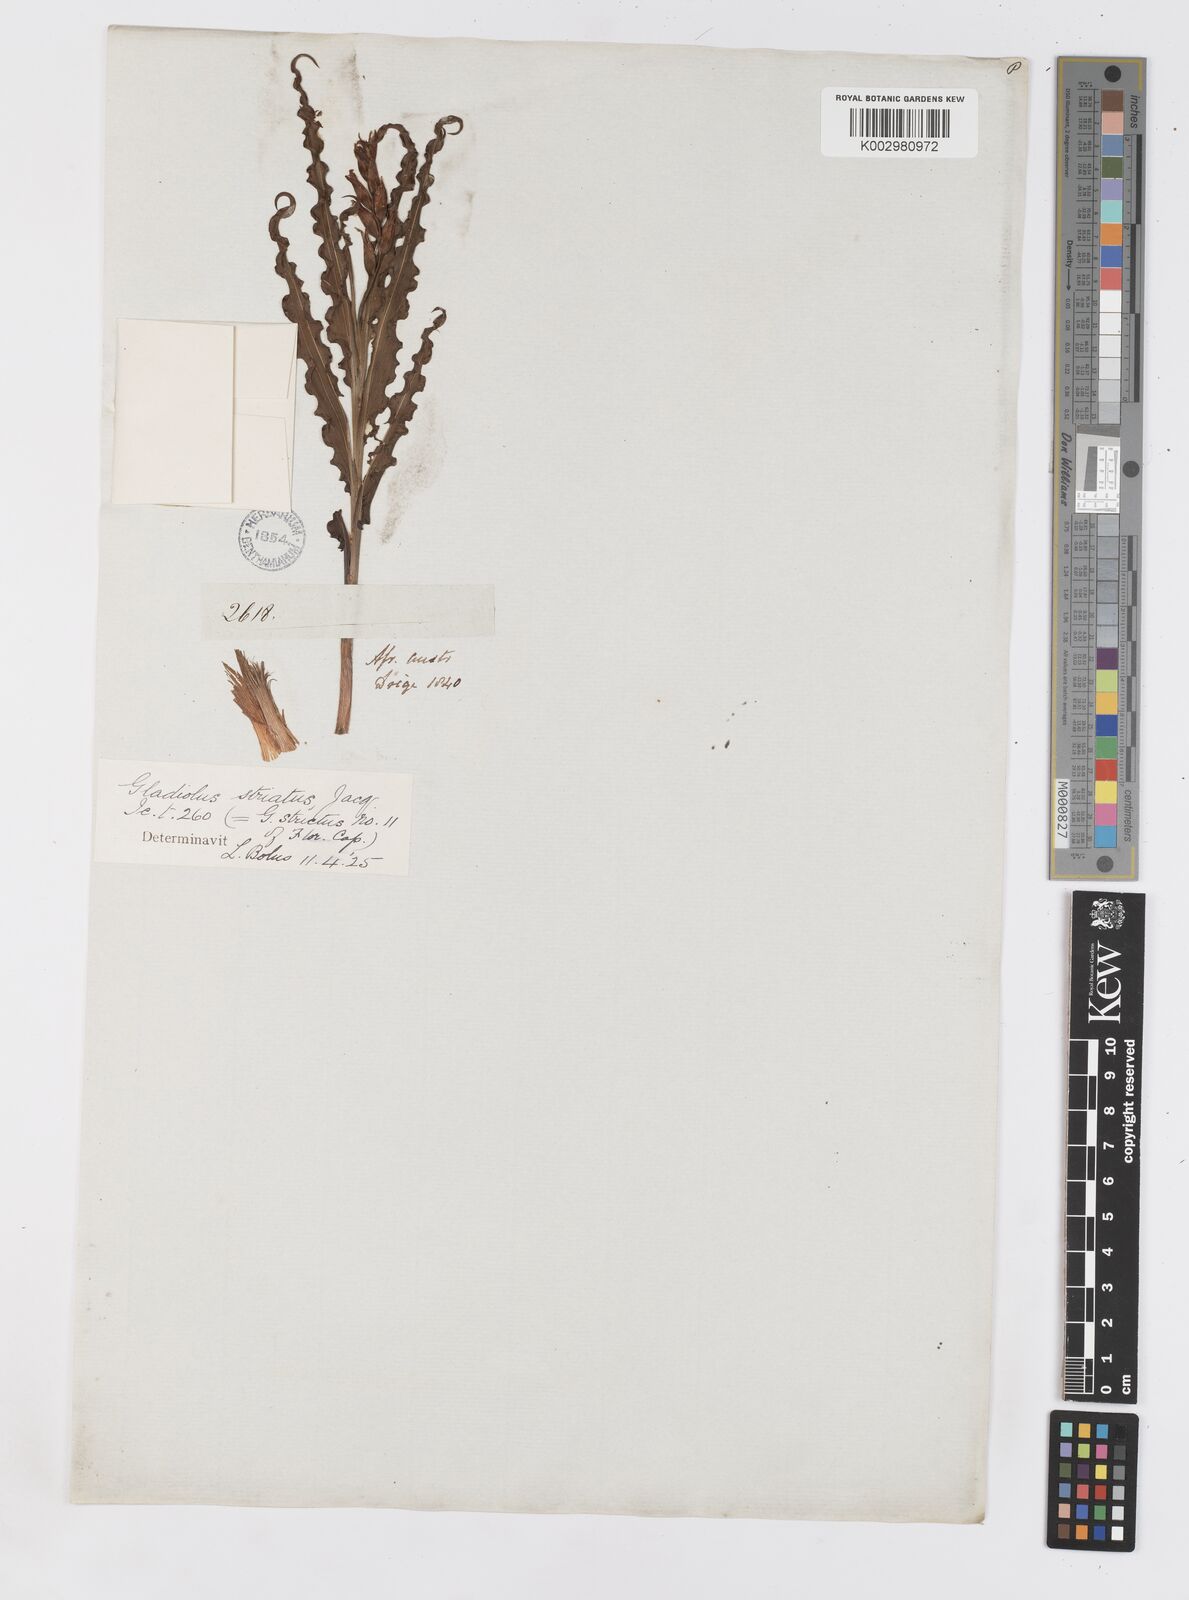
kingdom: Plantae
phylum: Tracheophyta
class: Liliopsida
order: Asparagales
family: Iridaceae
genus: Babiana
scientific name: Babiana striata
